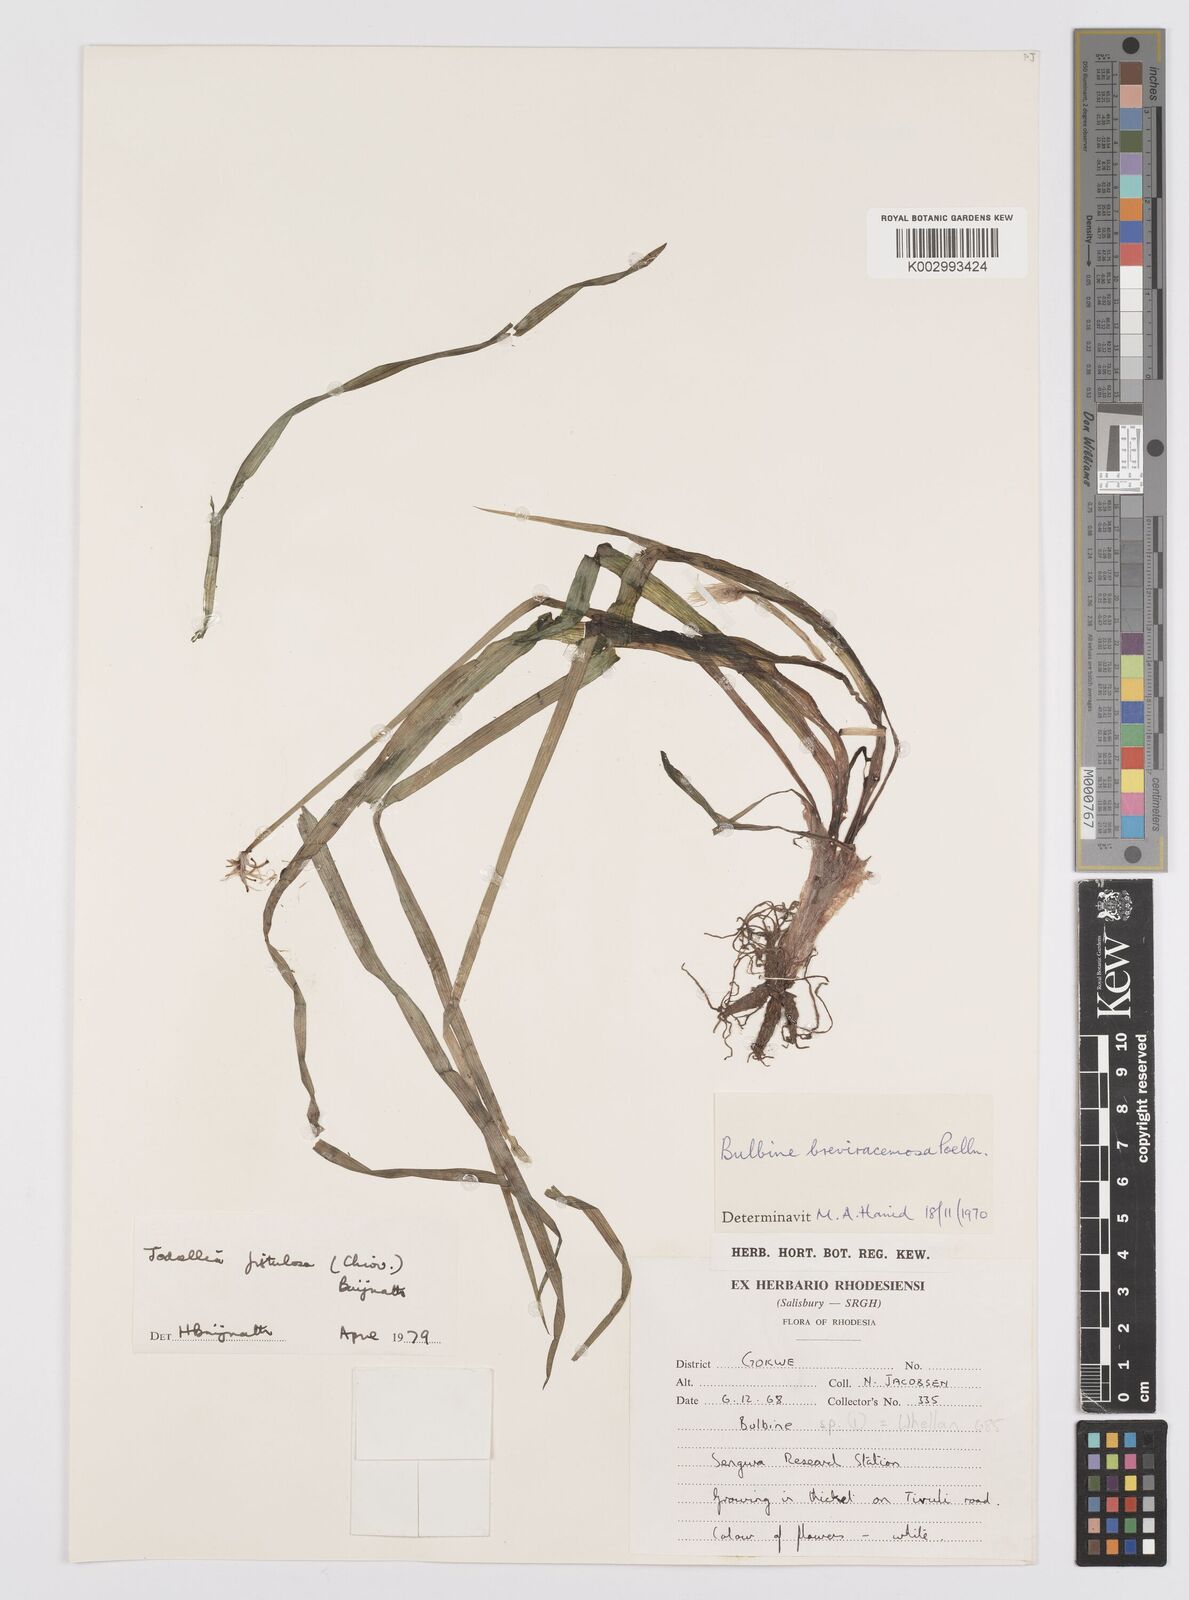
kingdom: Plantae
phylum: Tracheophyta
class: Liliopsida
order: Asparagales
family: Asphodelaceae
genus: Bulbine
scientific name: Bulbine fistulosa
